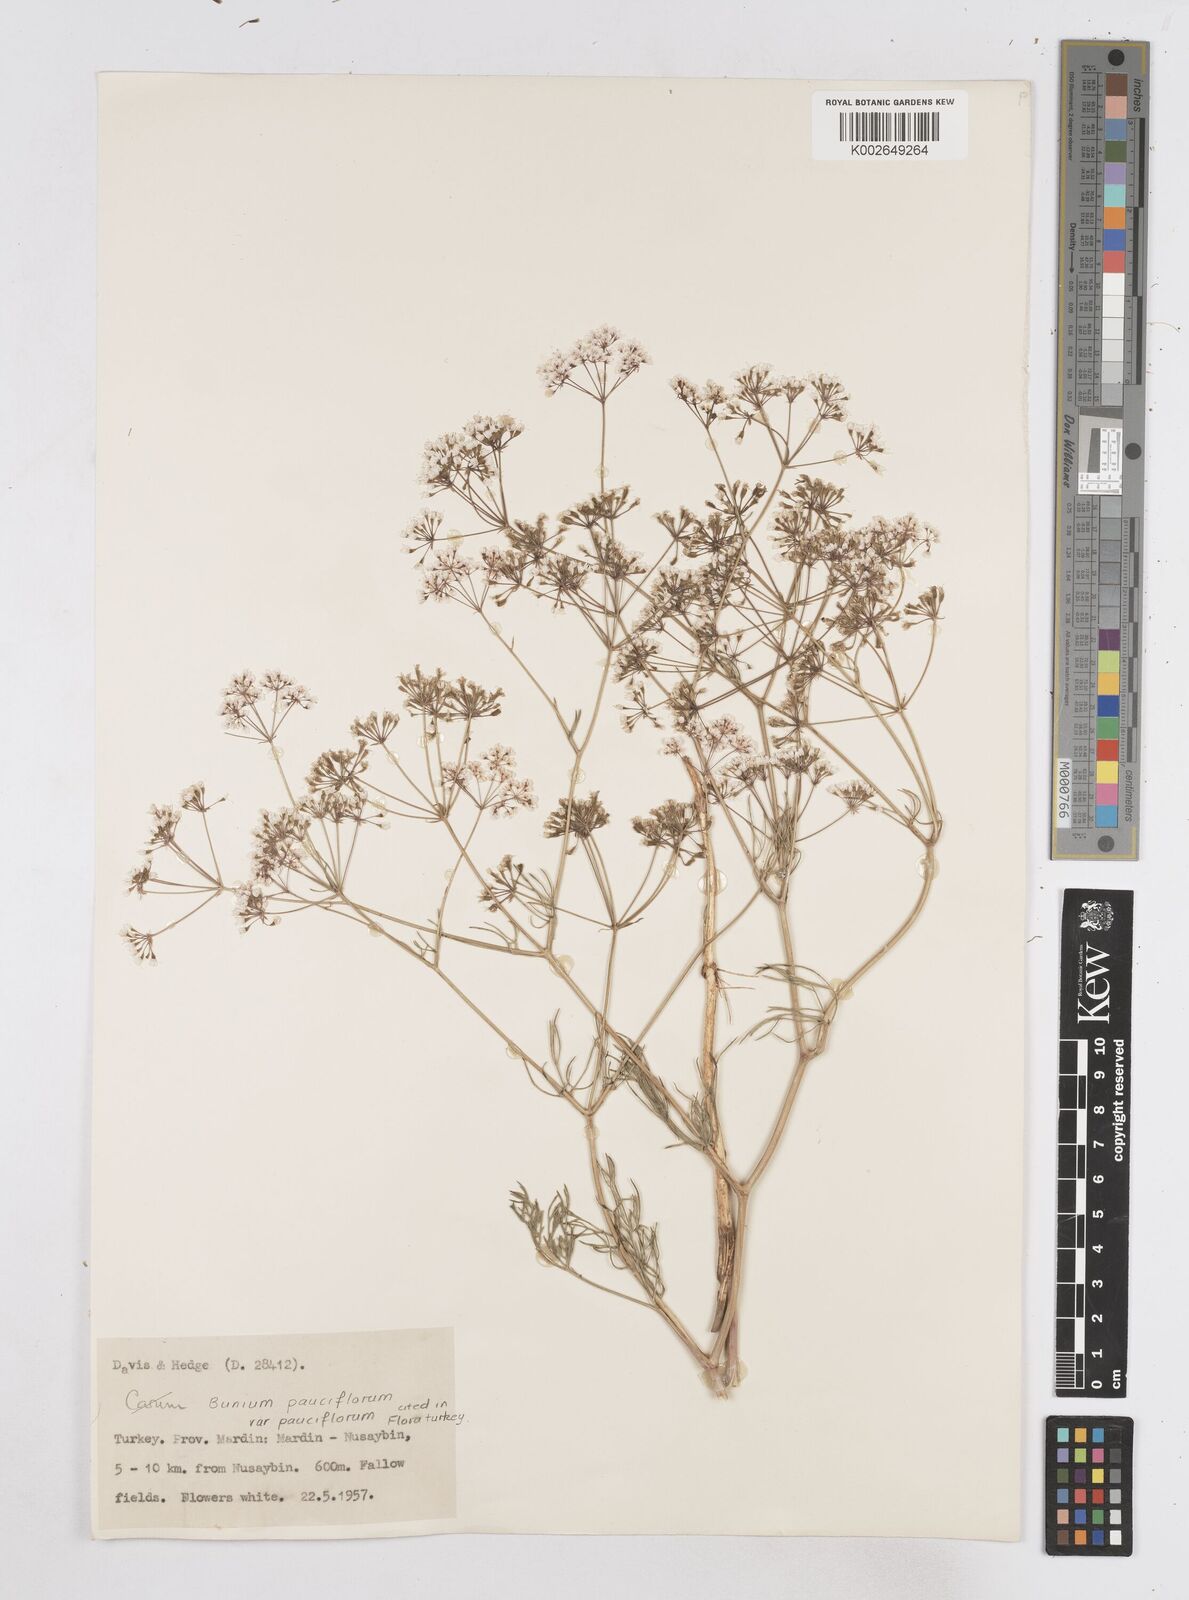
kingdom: Plantae
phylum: Tracheophyta
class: Magnoliopsida
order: Apiales
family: Apiaceae
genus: Bunium
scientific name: Bunium
